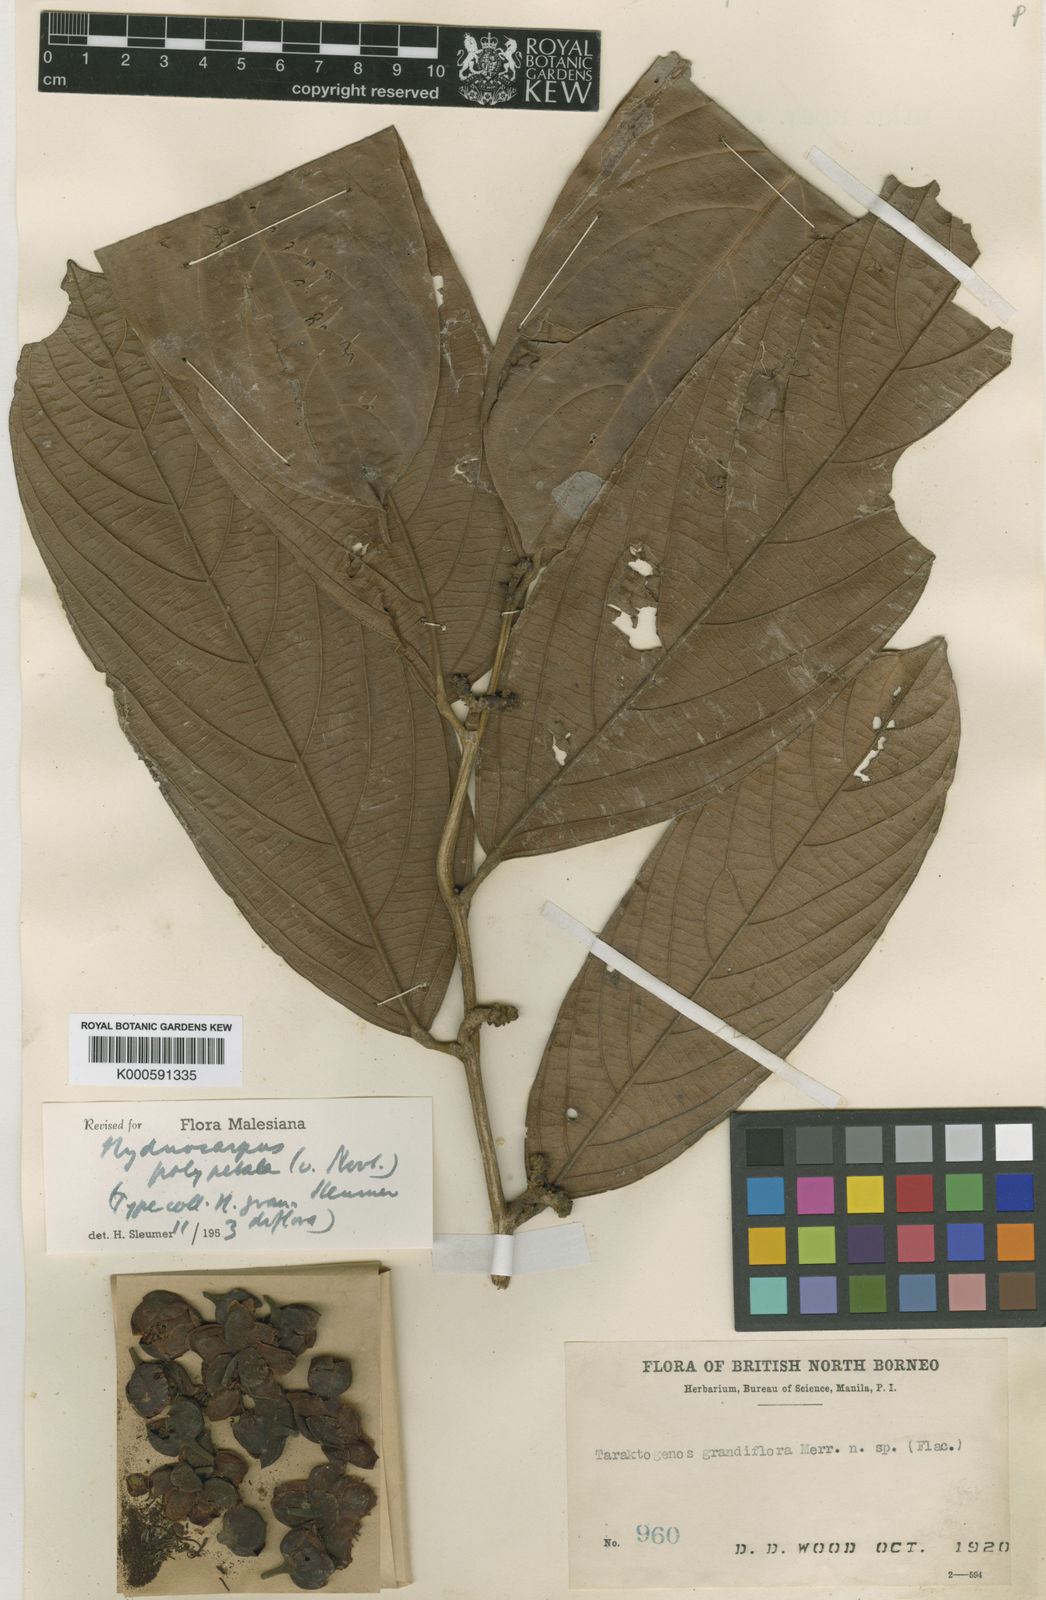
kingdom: Plantae
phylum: Tracheophyta
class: Magnoliopsida
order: Malpighiales
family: Achariaceae
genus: Hydnocarpus
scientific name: Hydnocarpus polypetalus
